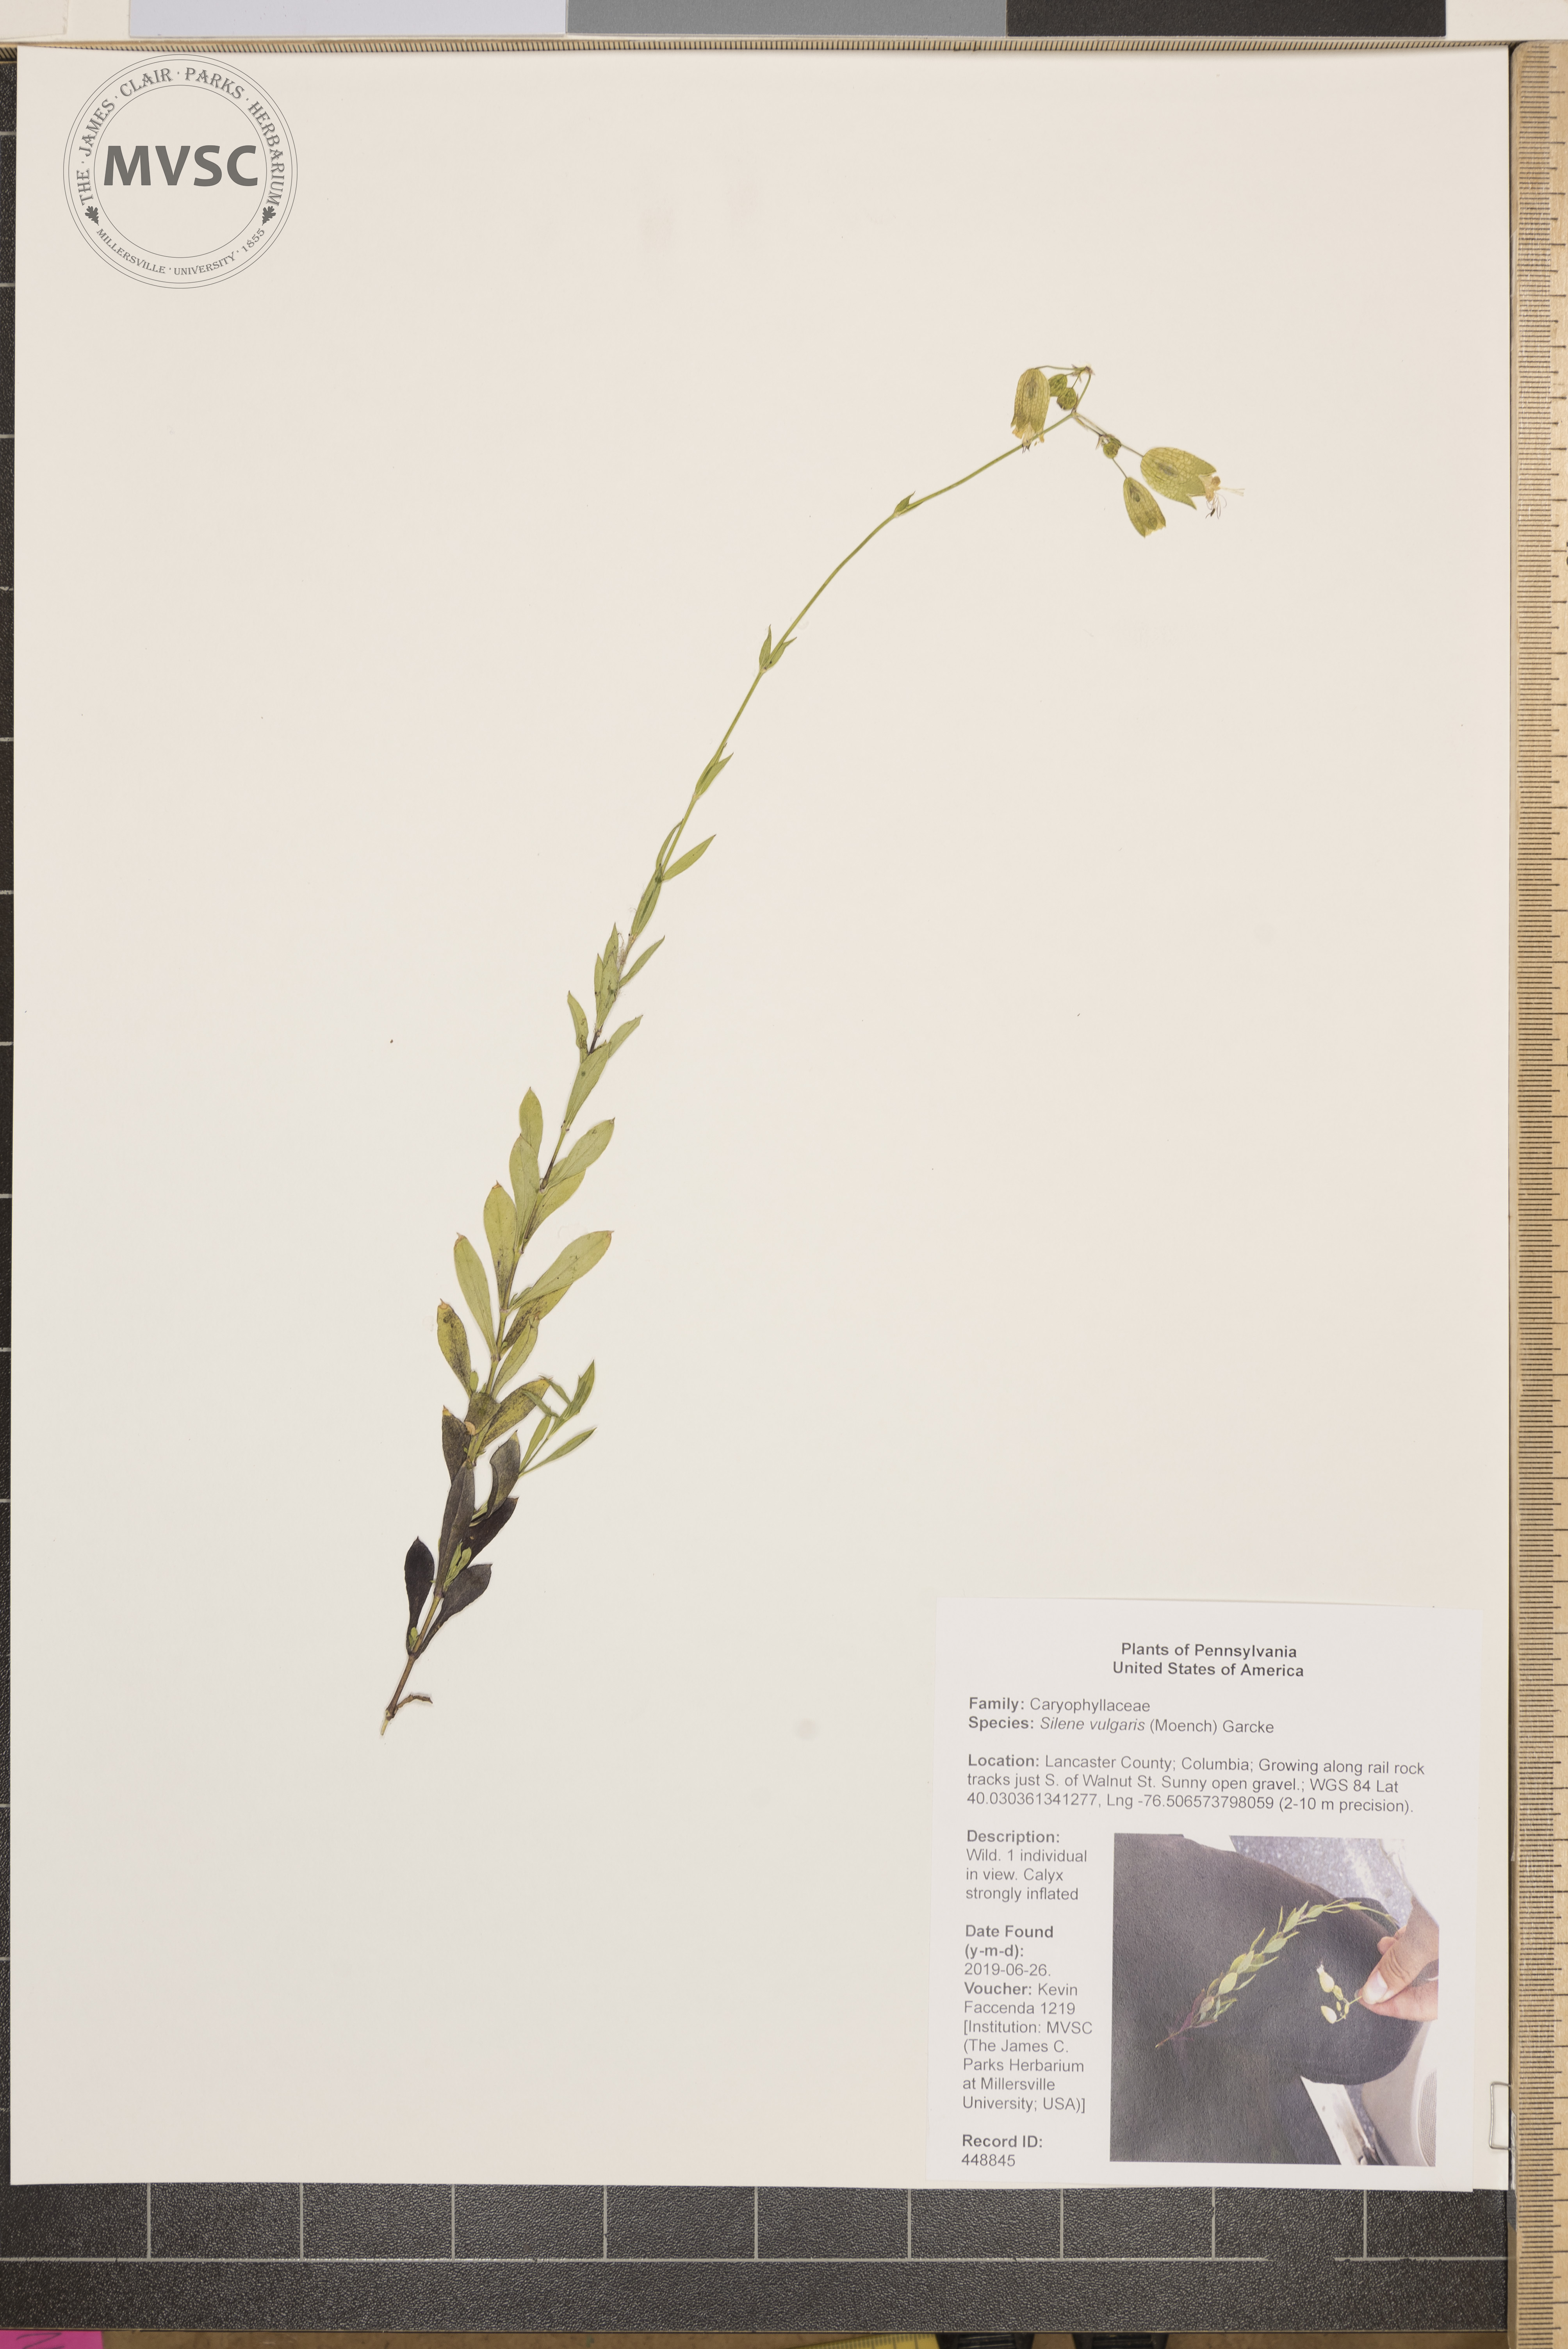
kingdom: Plantae
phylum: Tracheophyta
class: Magnoliopsida
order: Caryophyllales
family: Caryophyllaceae
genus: Silene
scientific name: Silene vulgaris
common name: Bladder campion
